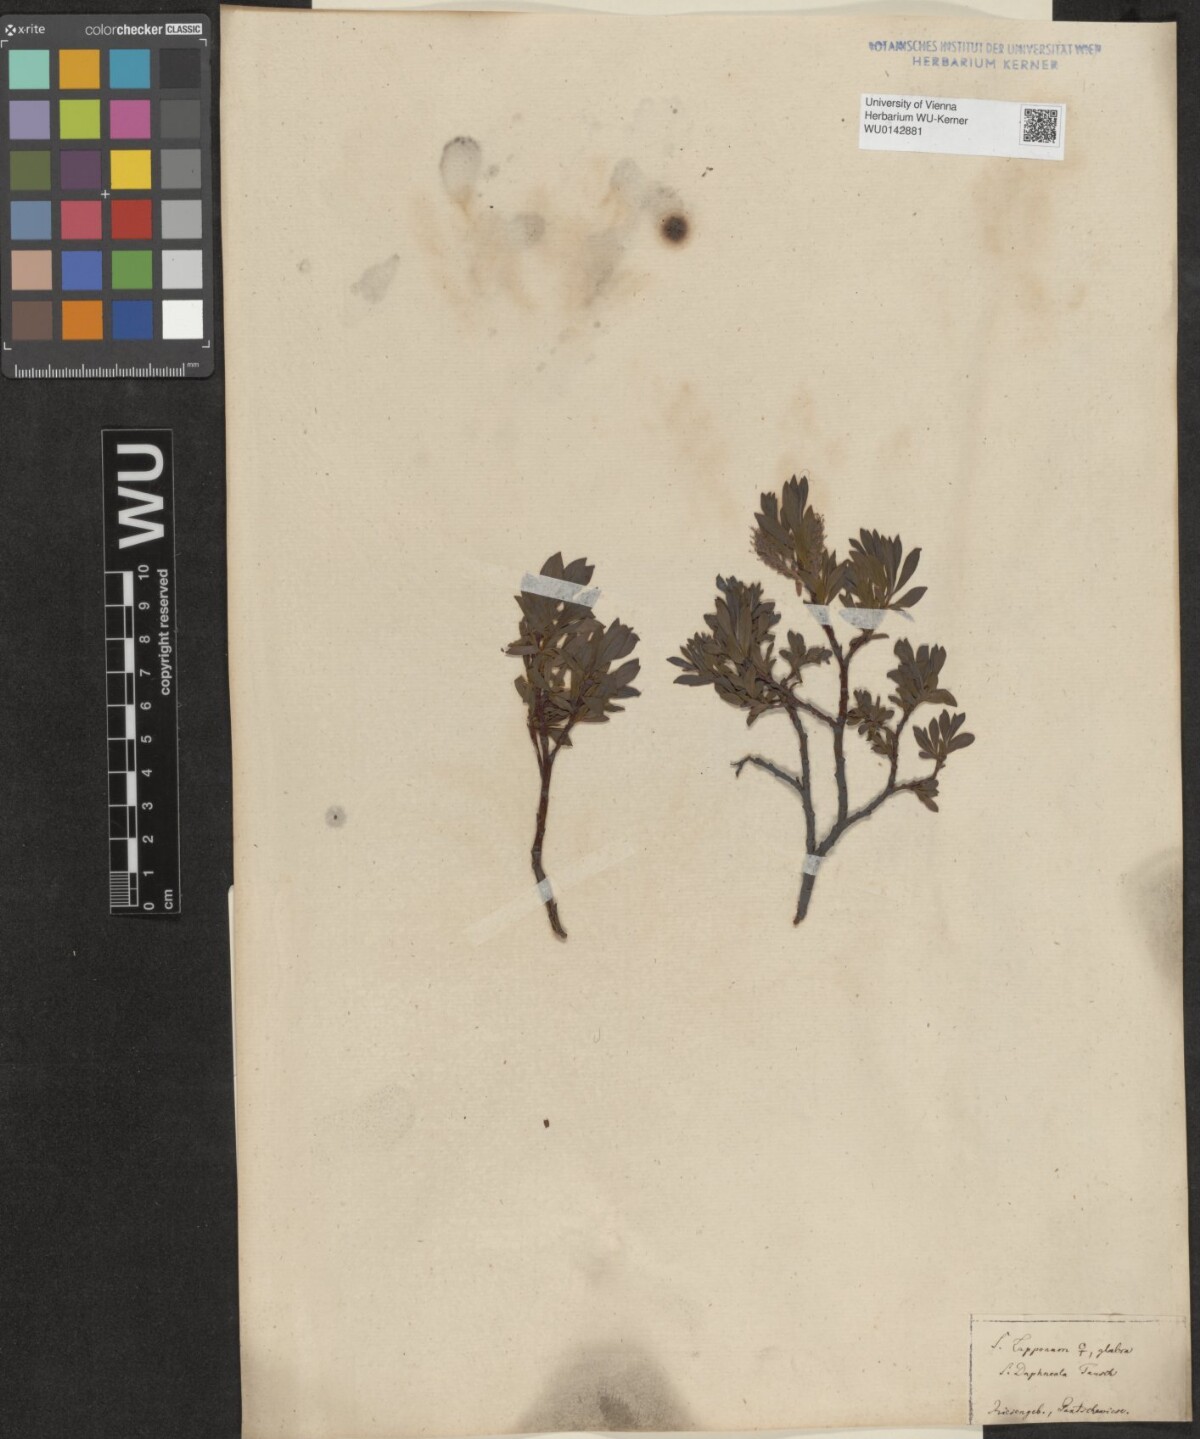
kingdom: Plantae
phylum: Tracheophyta
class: Magnoliopsida
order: Malpighiales
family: Salicaceae
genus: Salix
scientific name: Salix lapponum
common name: Downy willow
